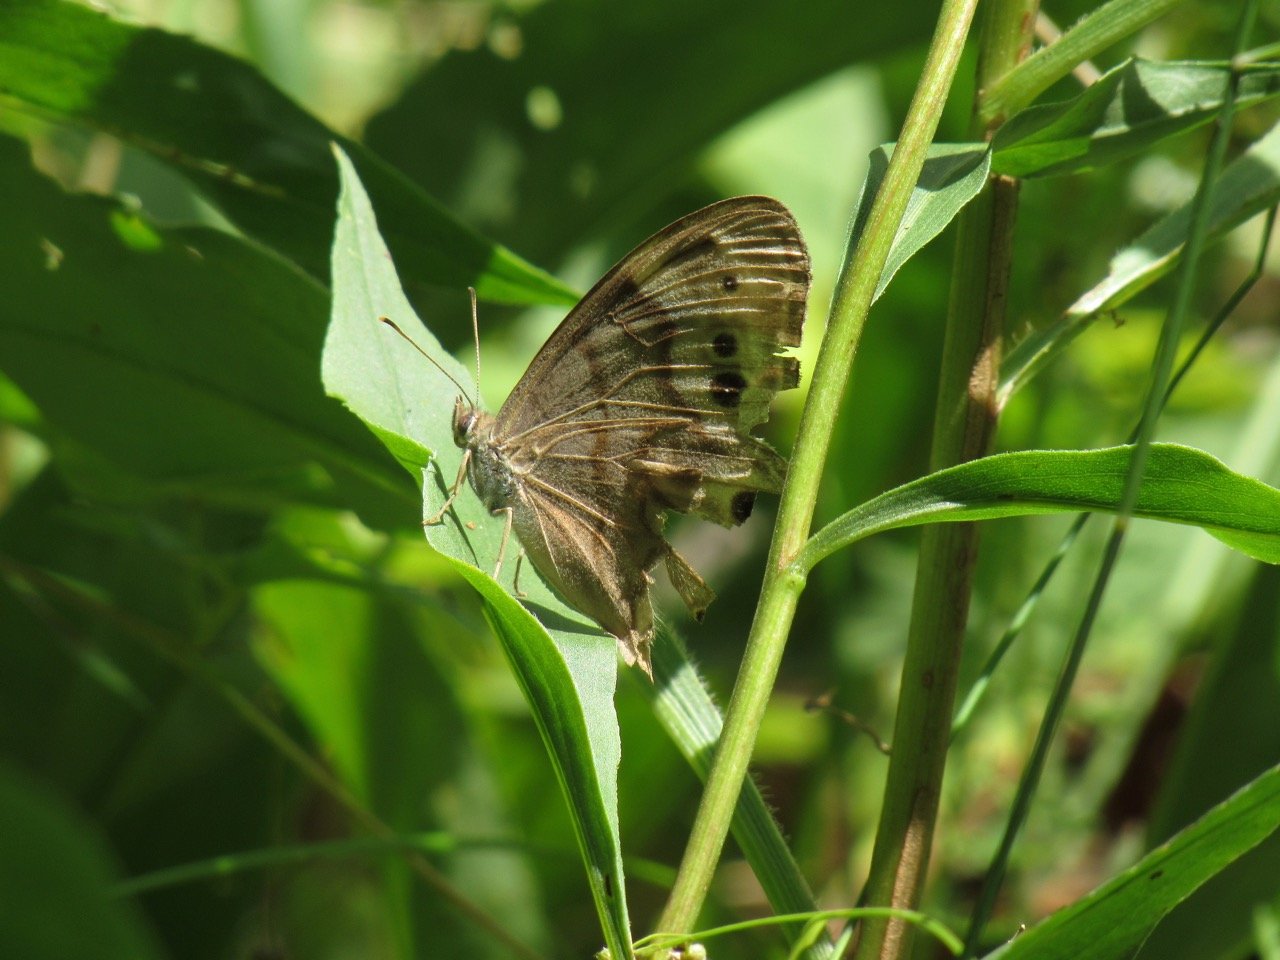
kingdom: Animalia
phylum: Arthropoda
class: Insecta
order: Lepidoptera
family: Nymphalidae
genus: Lethe
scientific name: Lethe anthedon
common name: Northern Pearly-Eye
